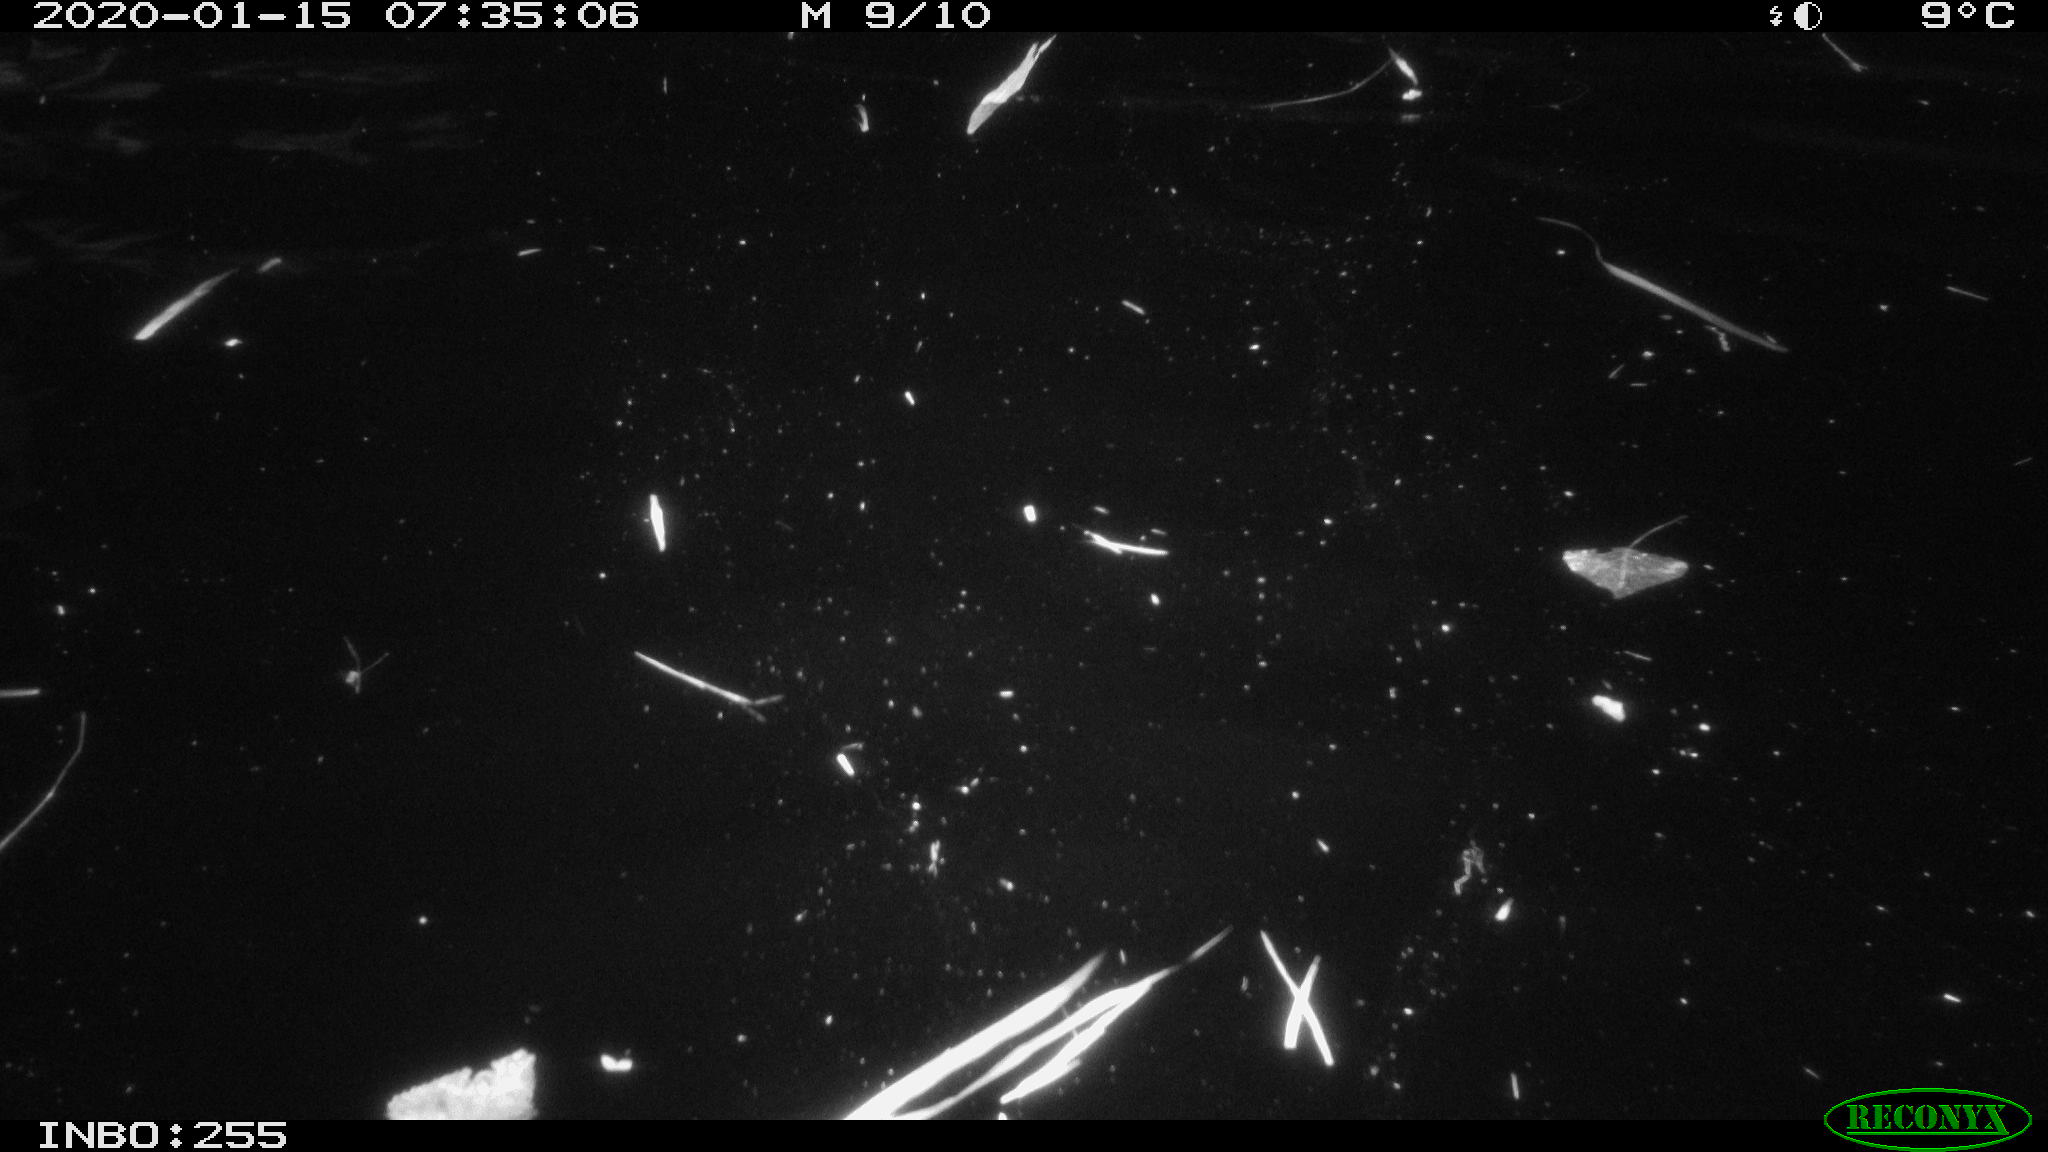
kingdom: Animalia
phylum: Chordata
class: Aves
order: Anseriformes
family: Anatidae
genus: Anas
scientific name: Anas platyrhynchos
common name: Mallard
